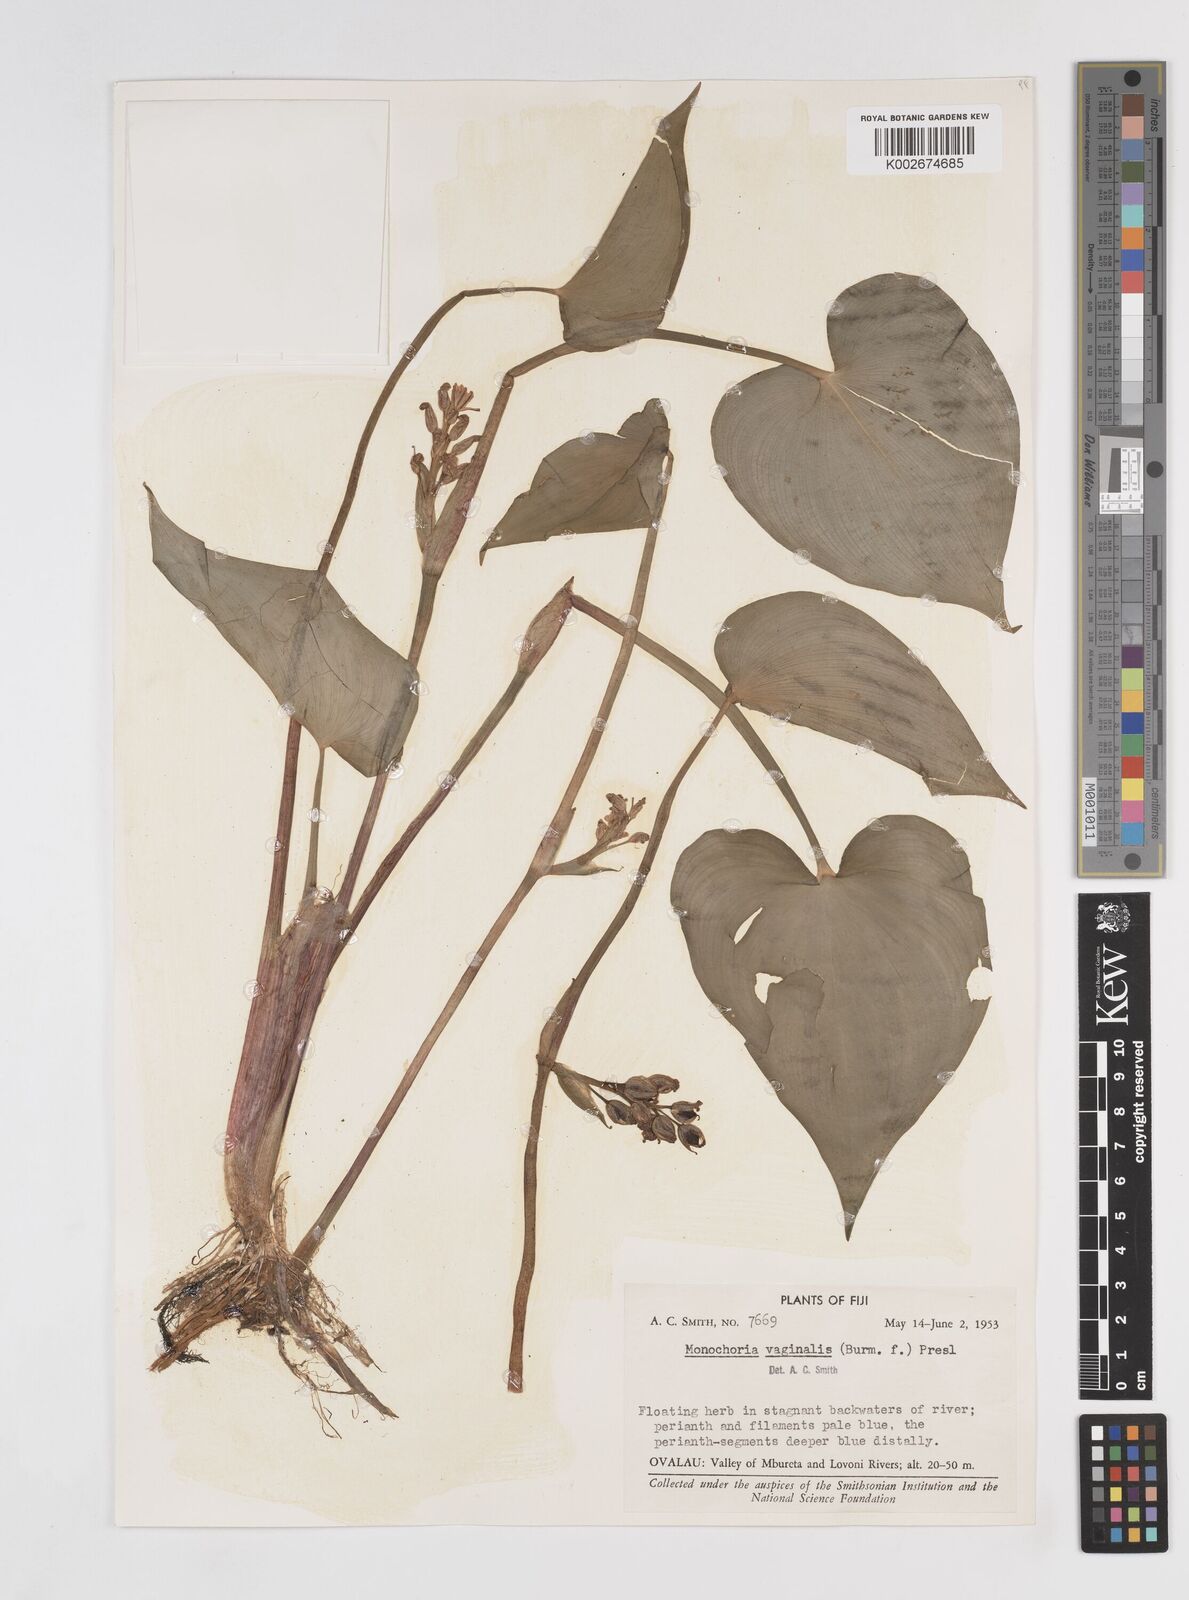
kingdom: Plantae
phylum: Tracheophyta
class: Liliopsida
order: Commelinales
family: Pontederiaceae
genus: Pontederia
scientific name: Pontederia vaginalis
